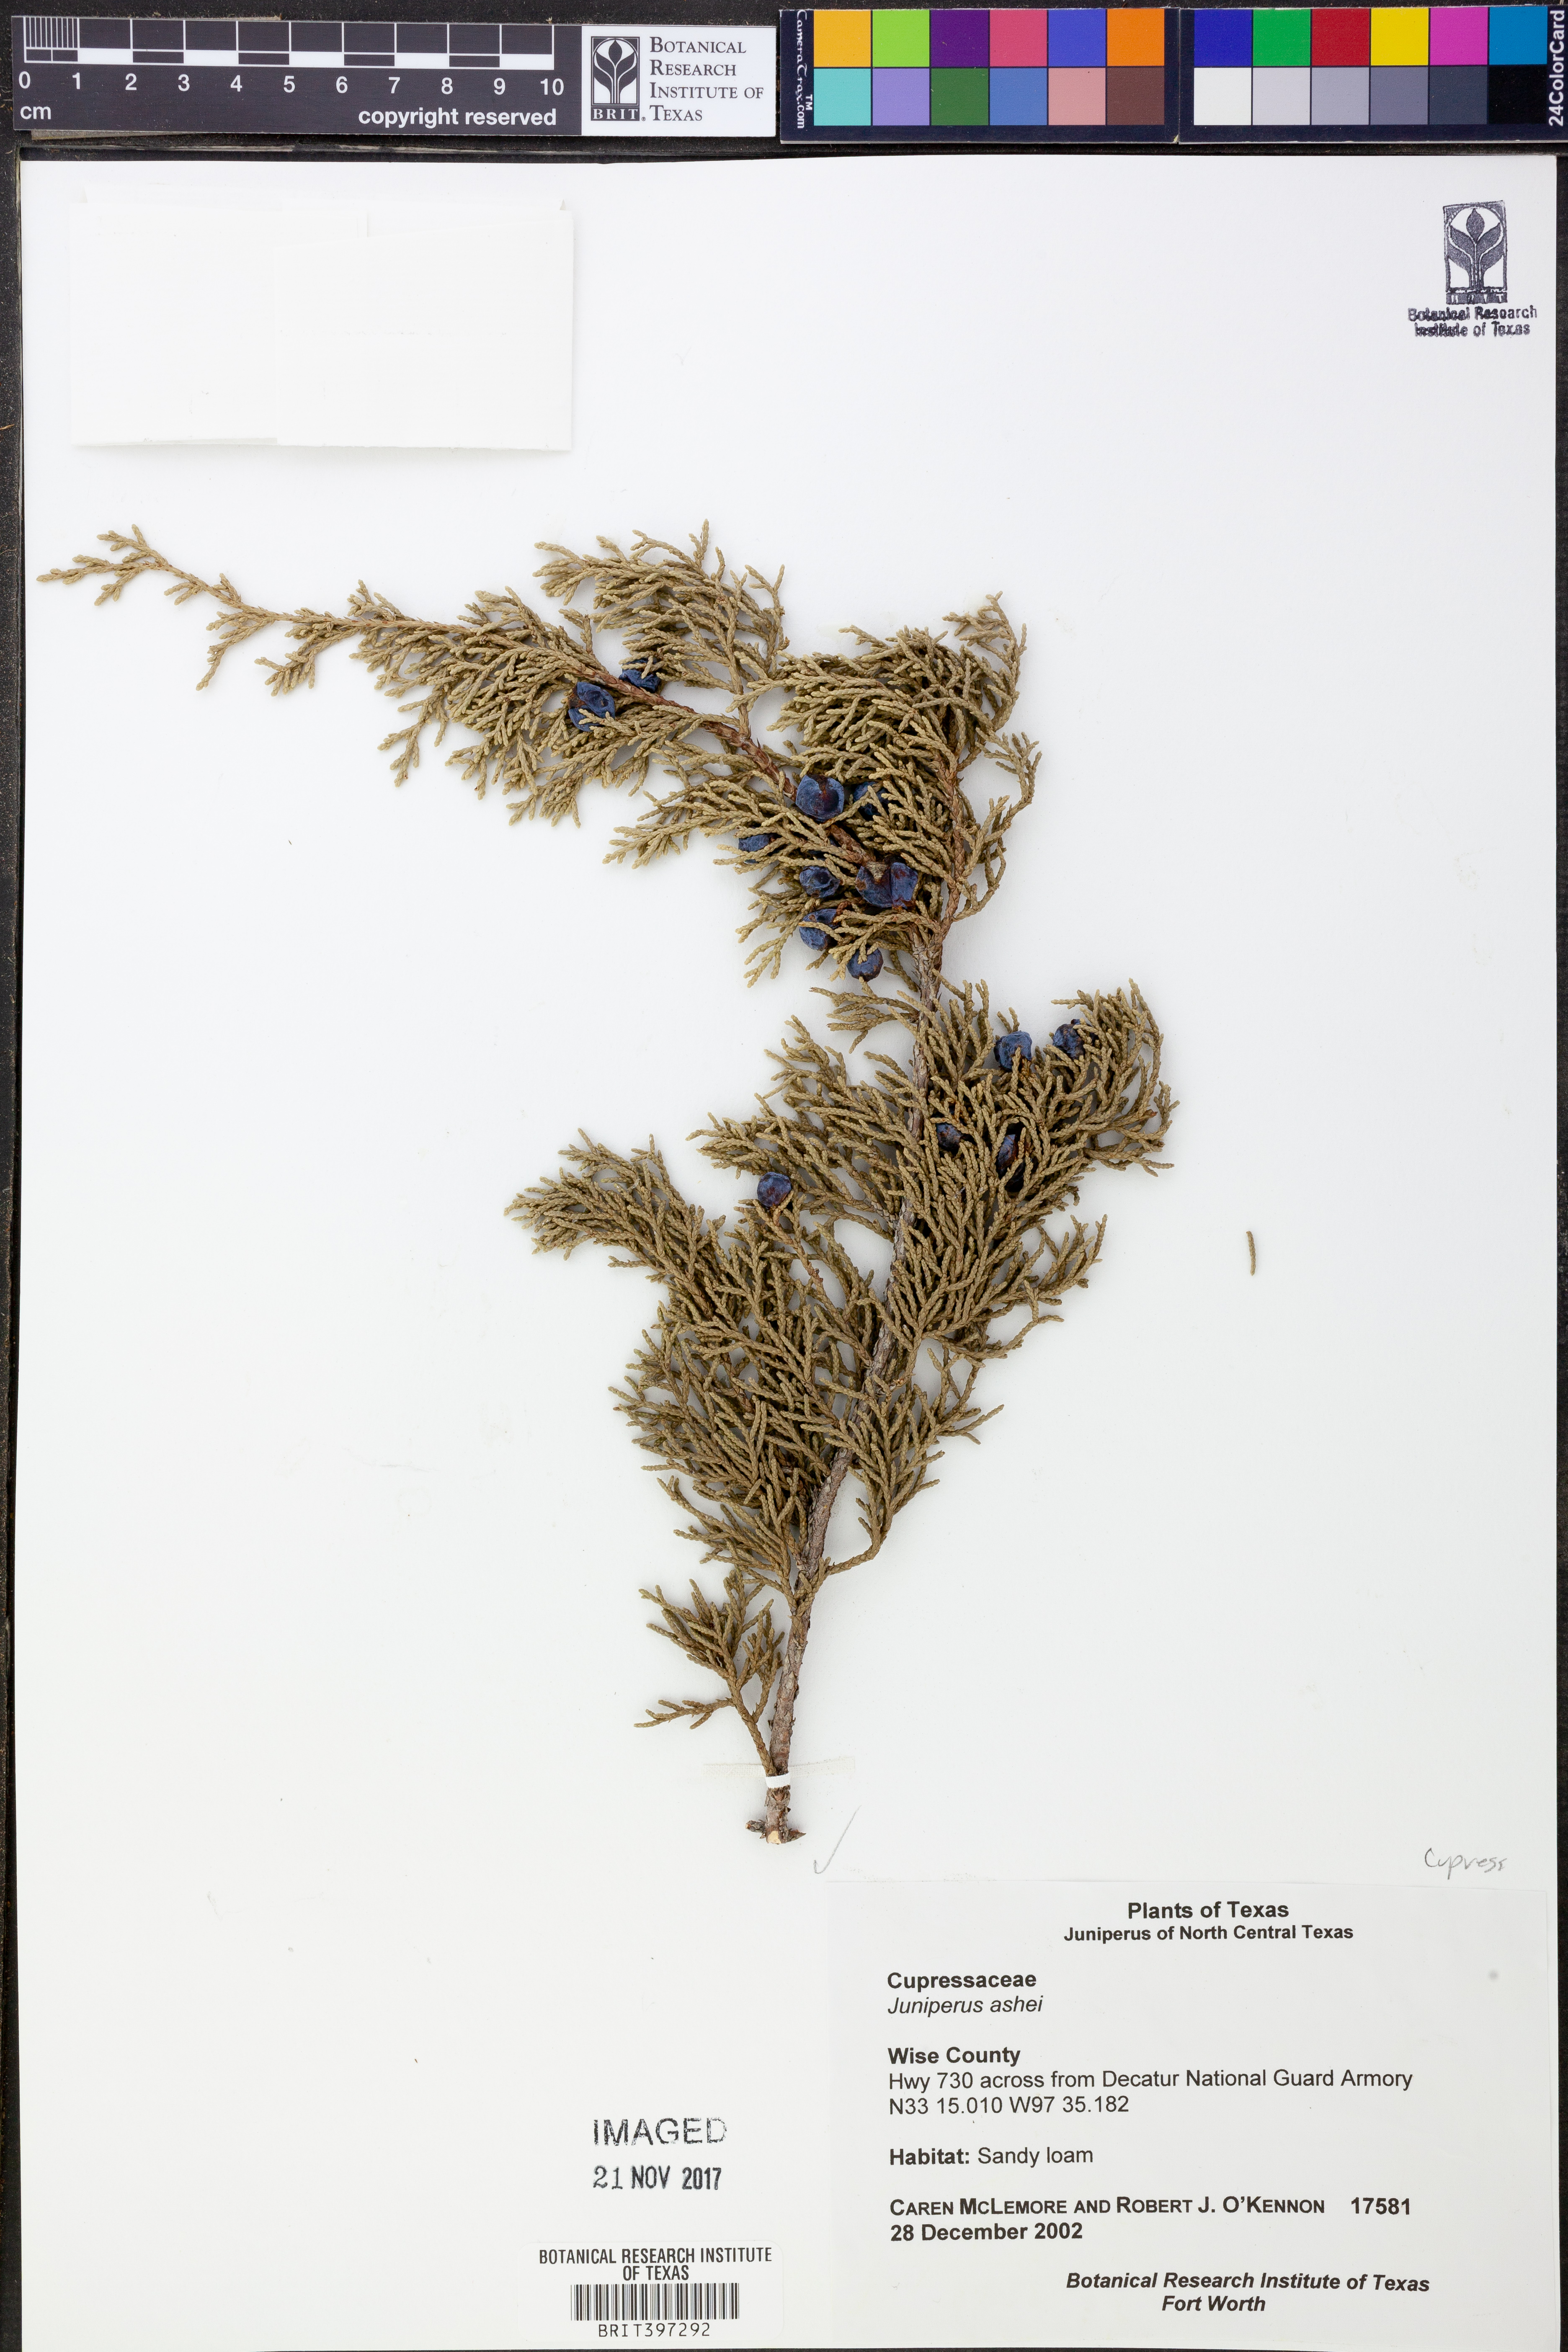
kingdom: Plantae
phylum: Tracheophyta
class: Pinopsida
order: Pinales
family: Cupressaceae
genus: Juniperus
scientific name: Juniperus ashei
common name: Mexican juniper
